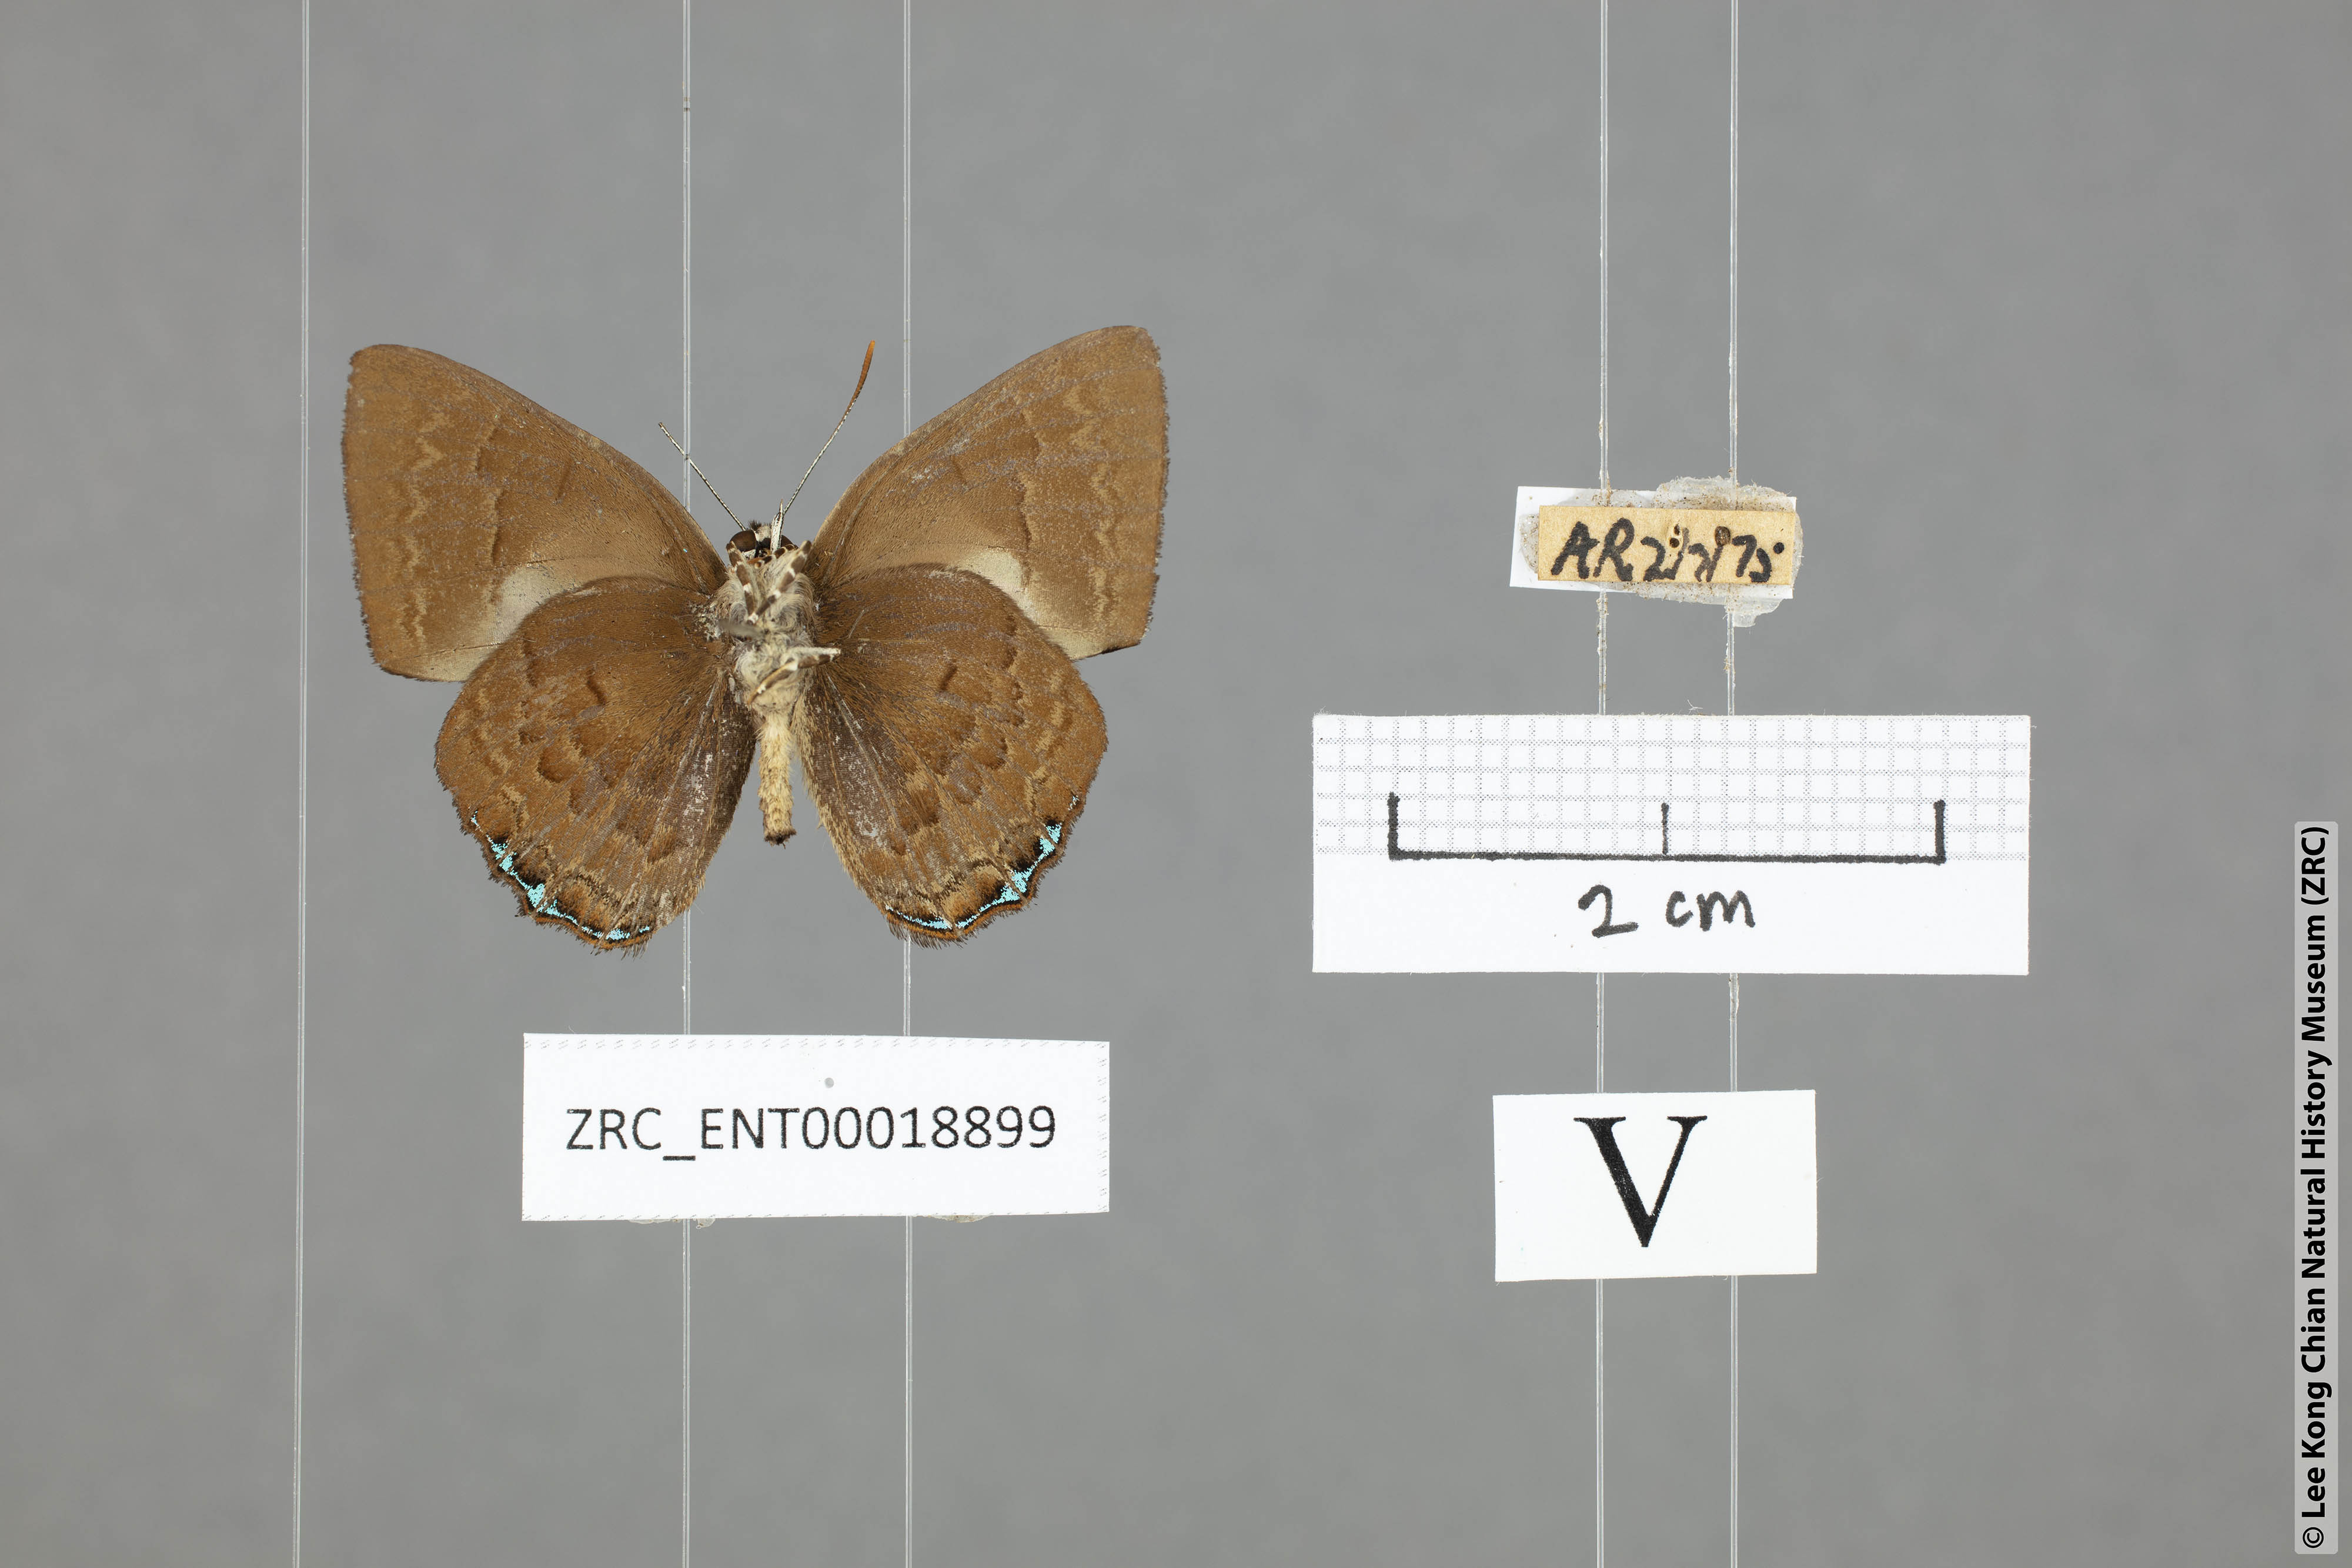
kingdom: Animalia
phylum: Arthropoda
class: Insecta
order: Lepidoptera
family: Lycaenidae
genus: Simiskina
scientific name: Simiskina
